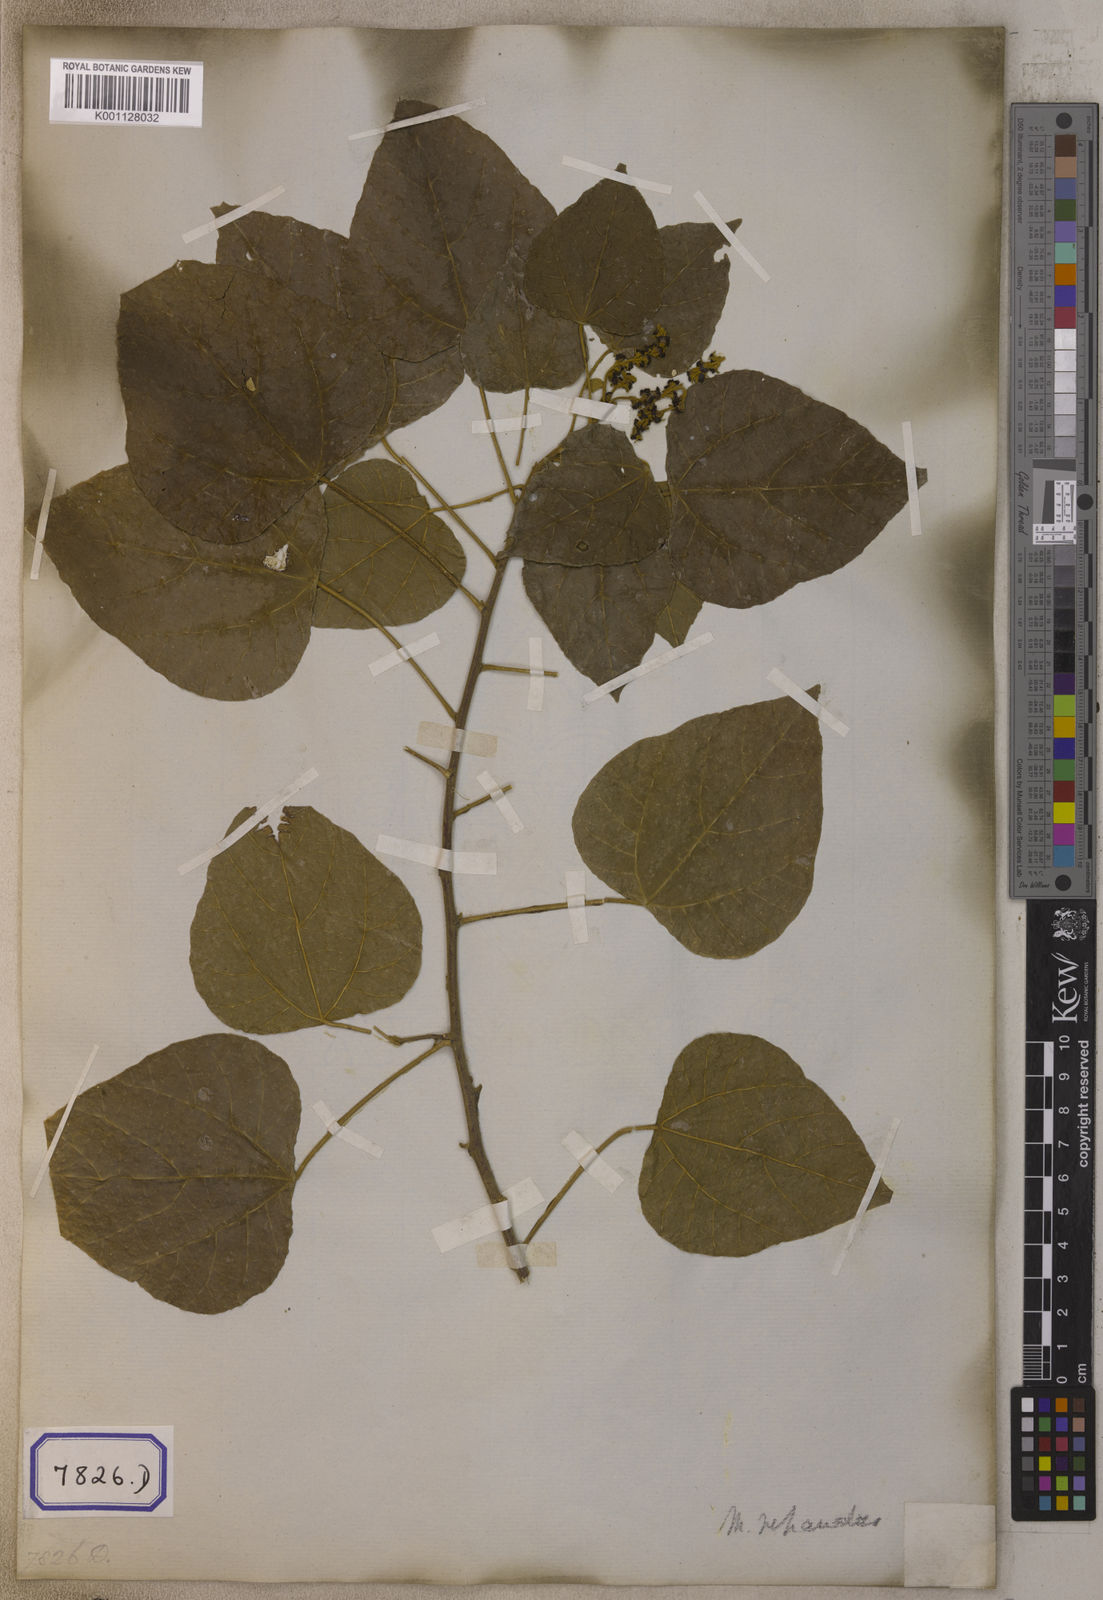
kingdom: Plantae
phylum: Tracheophyta
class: Magnoliopsida
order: Malpighiales
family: Euphorbiaceae
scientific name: Euphorbiaceae
